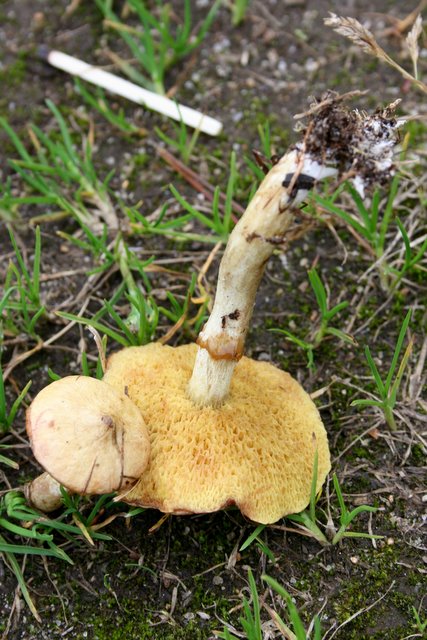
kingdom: Fungi
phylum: Basidiomycota
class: Agaricomycetes
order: Boletales
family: Suillaceae
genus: Suillus
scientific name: Suillus flavidus
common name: mose-slimrørhat
